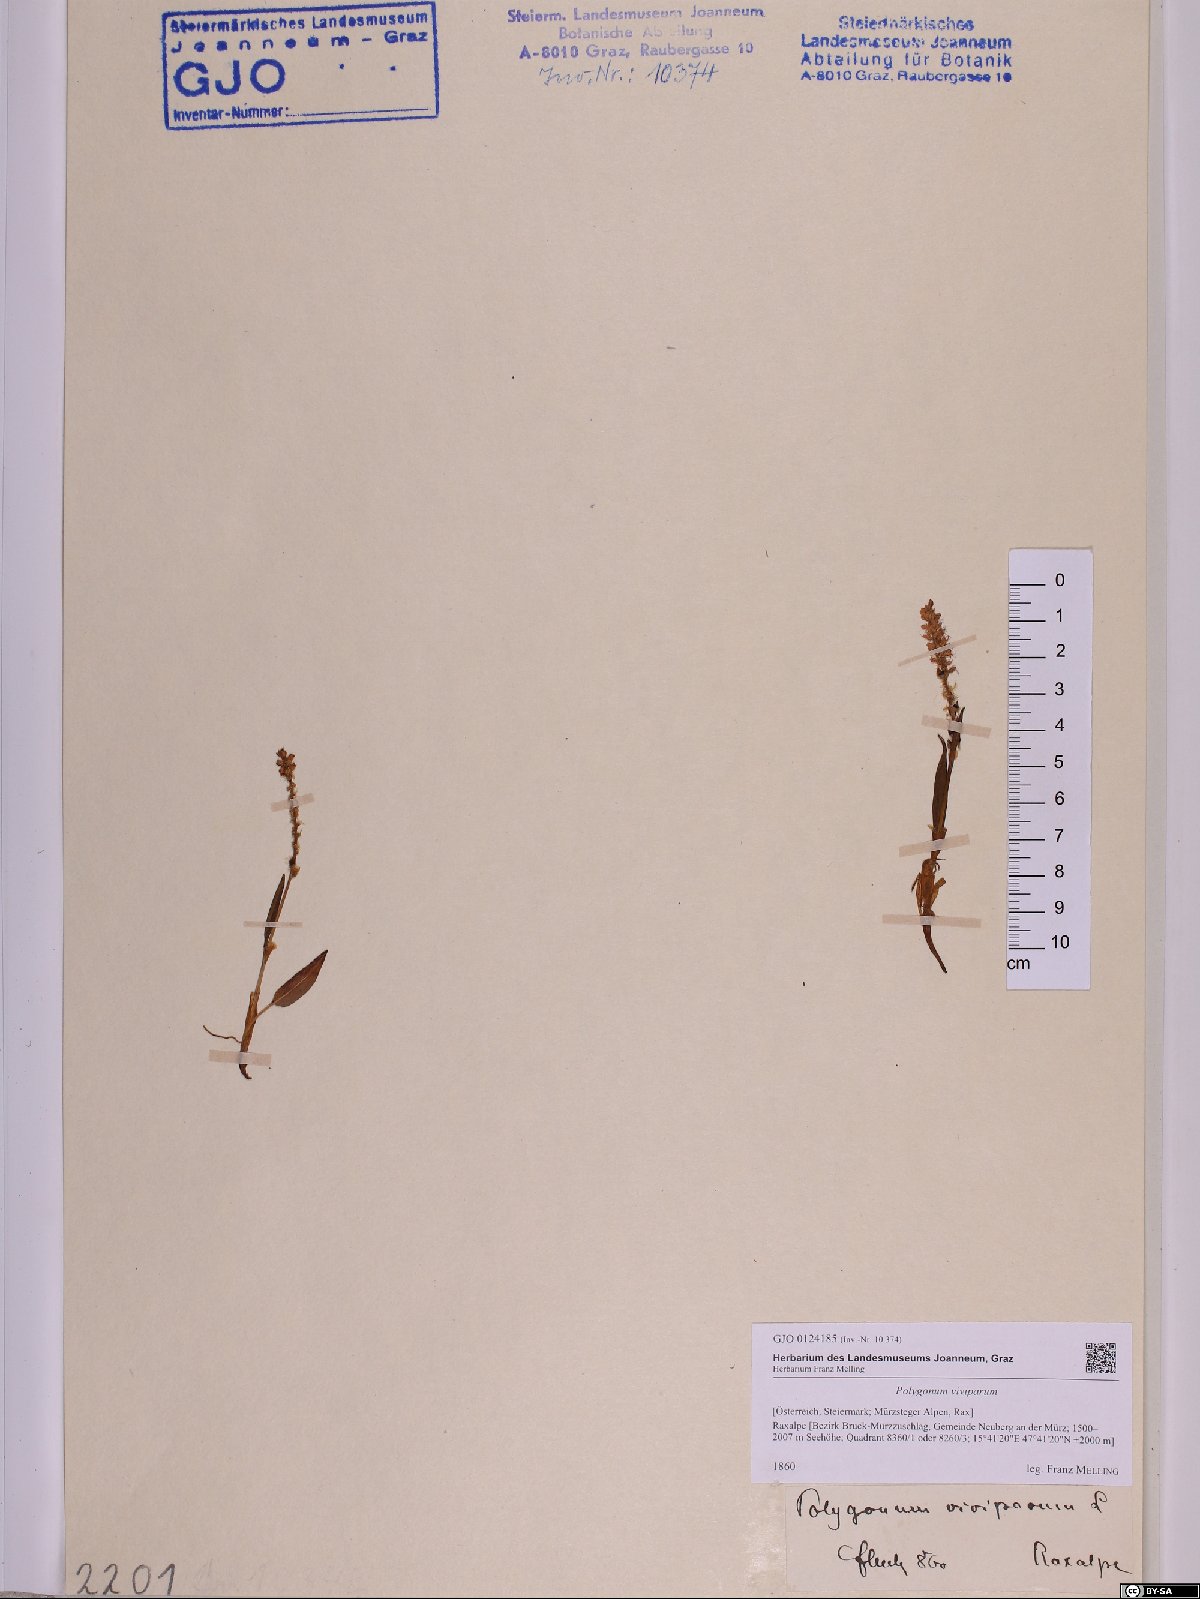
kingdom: Plantae
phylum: Tracheophyta
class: Magnoliopsida
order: Caryophyllales
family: Polygonaceae
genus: Bistorta
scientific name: Bistorta vivipara
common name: Alpine bistort
